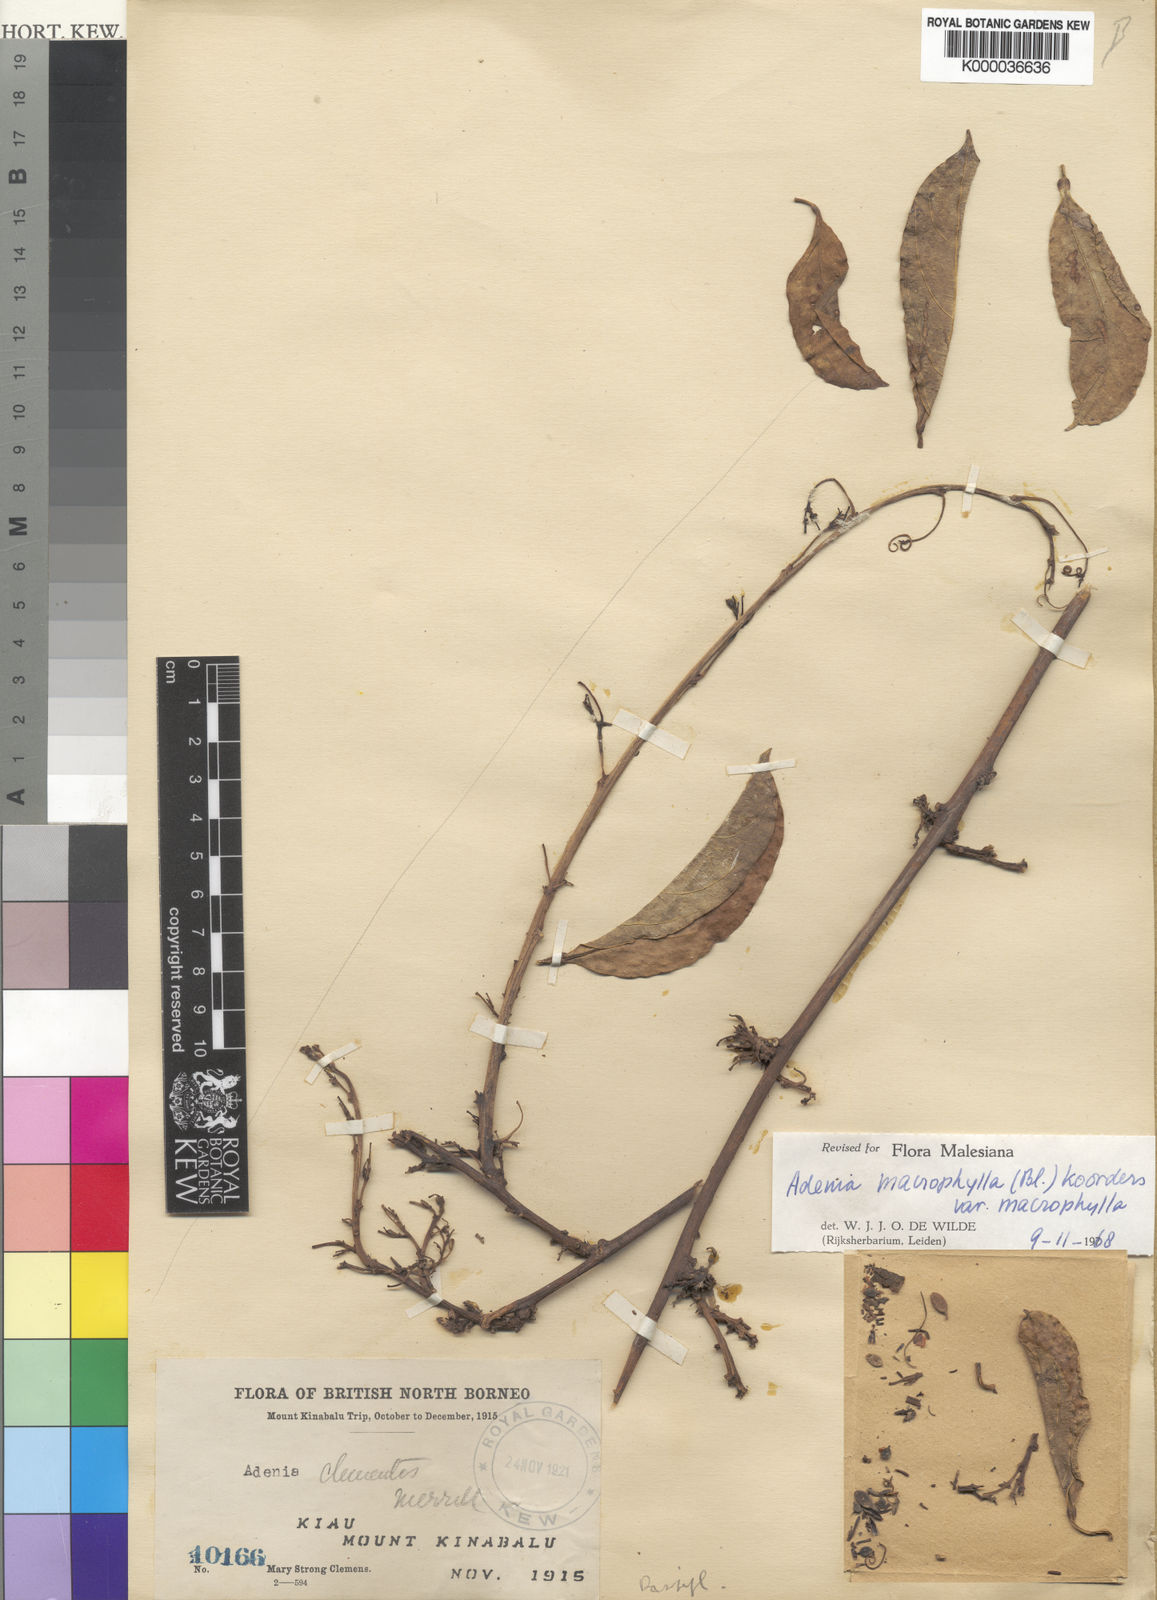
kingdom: Plantae
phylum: Tracheophyta
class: Magnoliopsida
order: Malpighiales
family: Passifloraceae
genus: Adenia
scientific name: Adenia macrophylla
